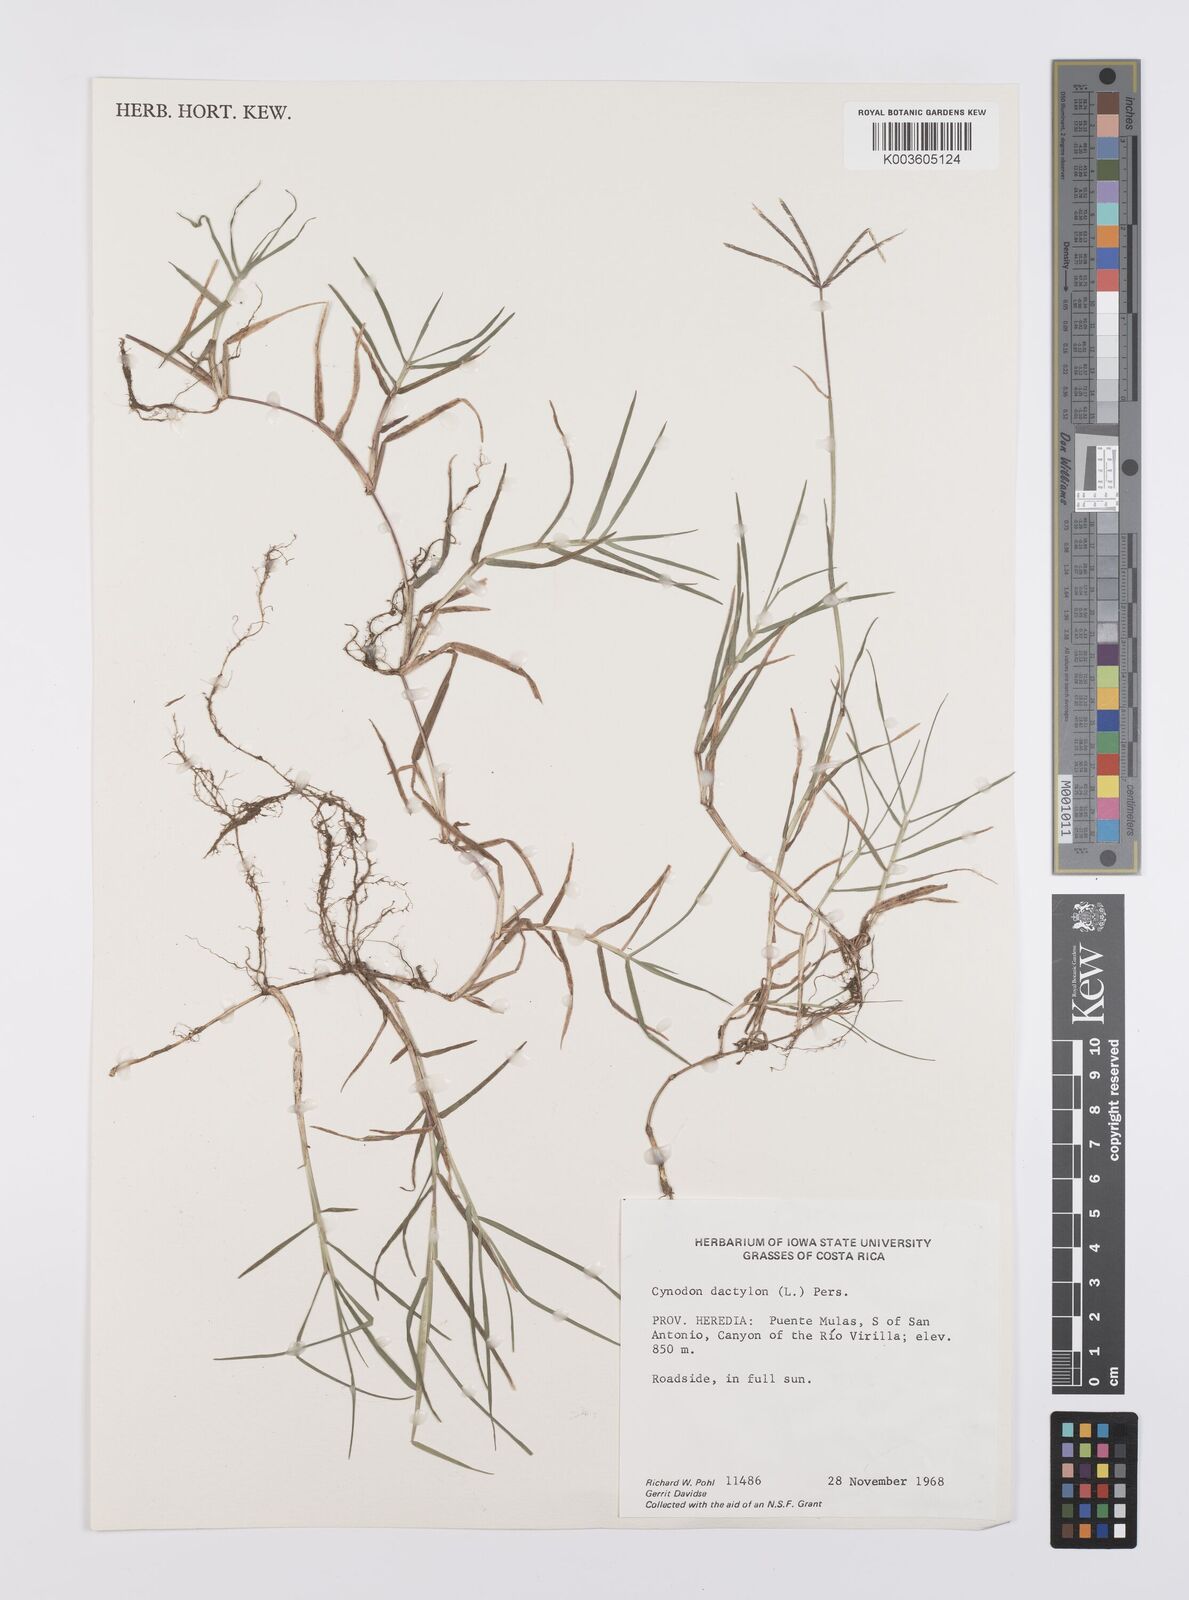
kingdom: Plantae
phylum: Tracheophyta
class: Liliopsida
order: Poales
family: Poaceae
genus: Cynodon
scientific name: Cynodon dactylon
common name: Bermuda grass
